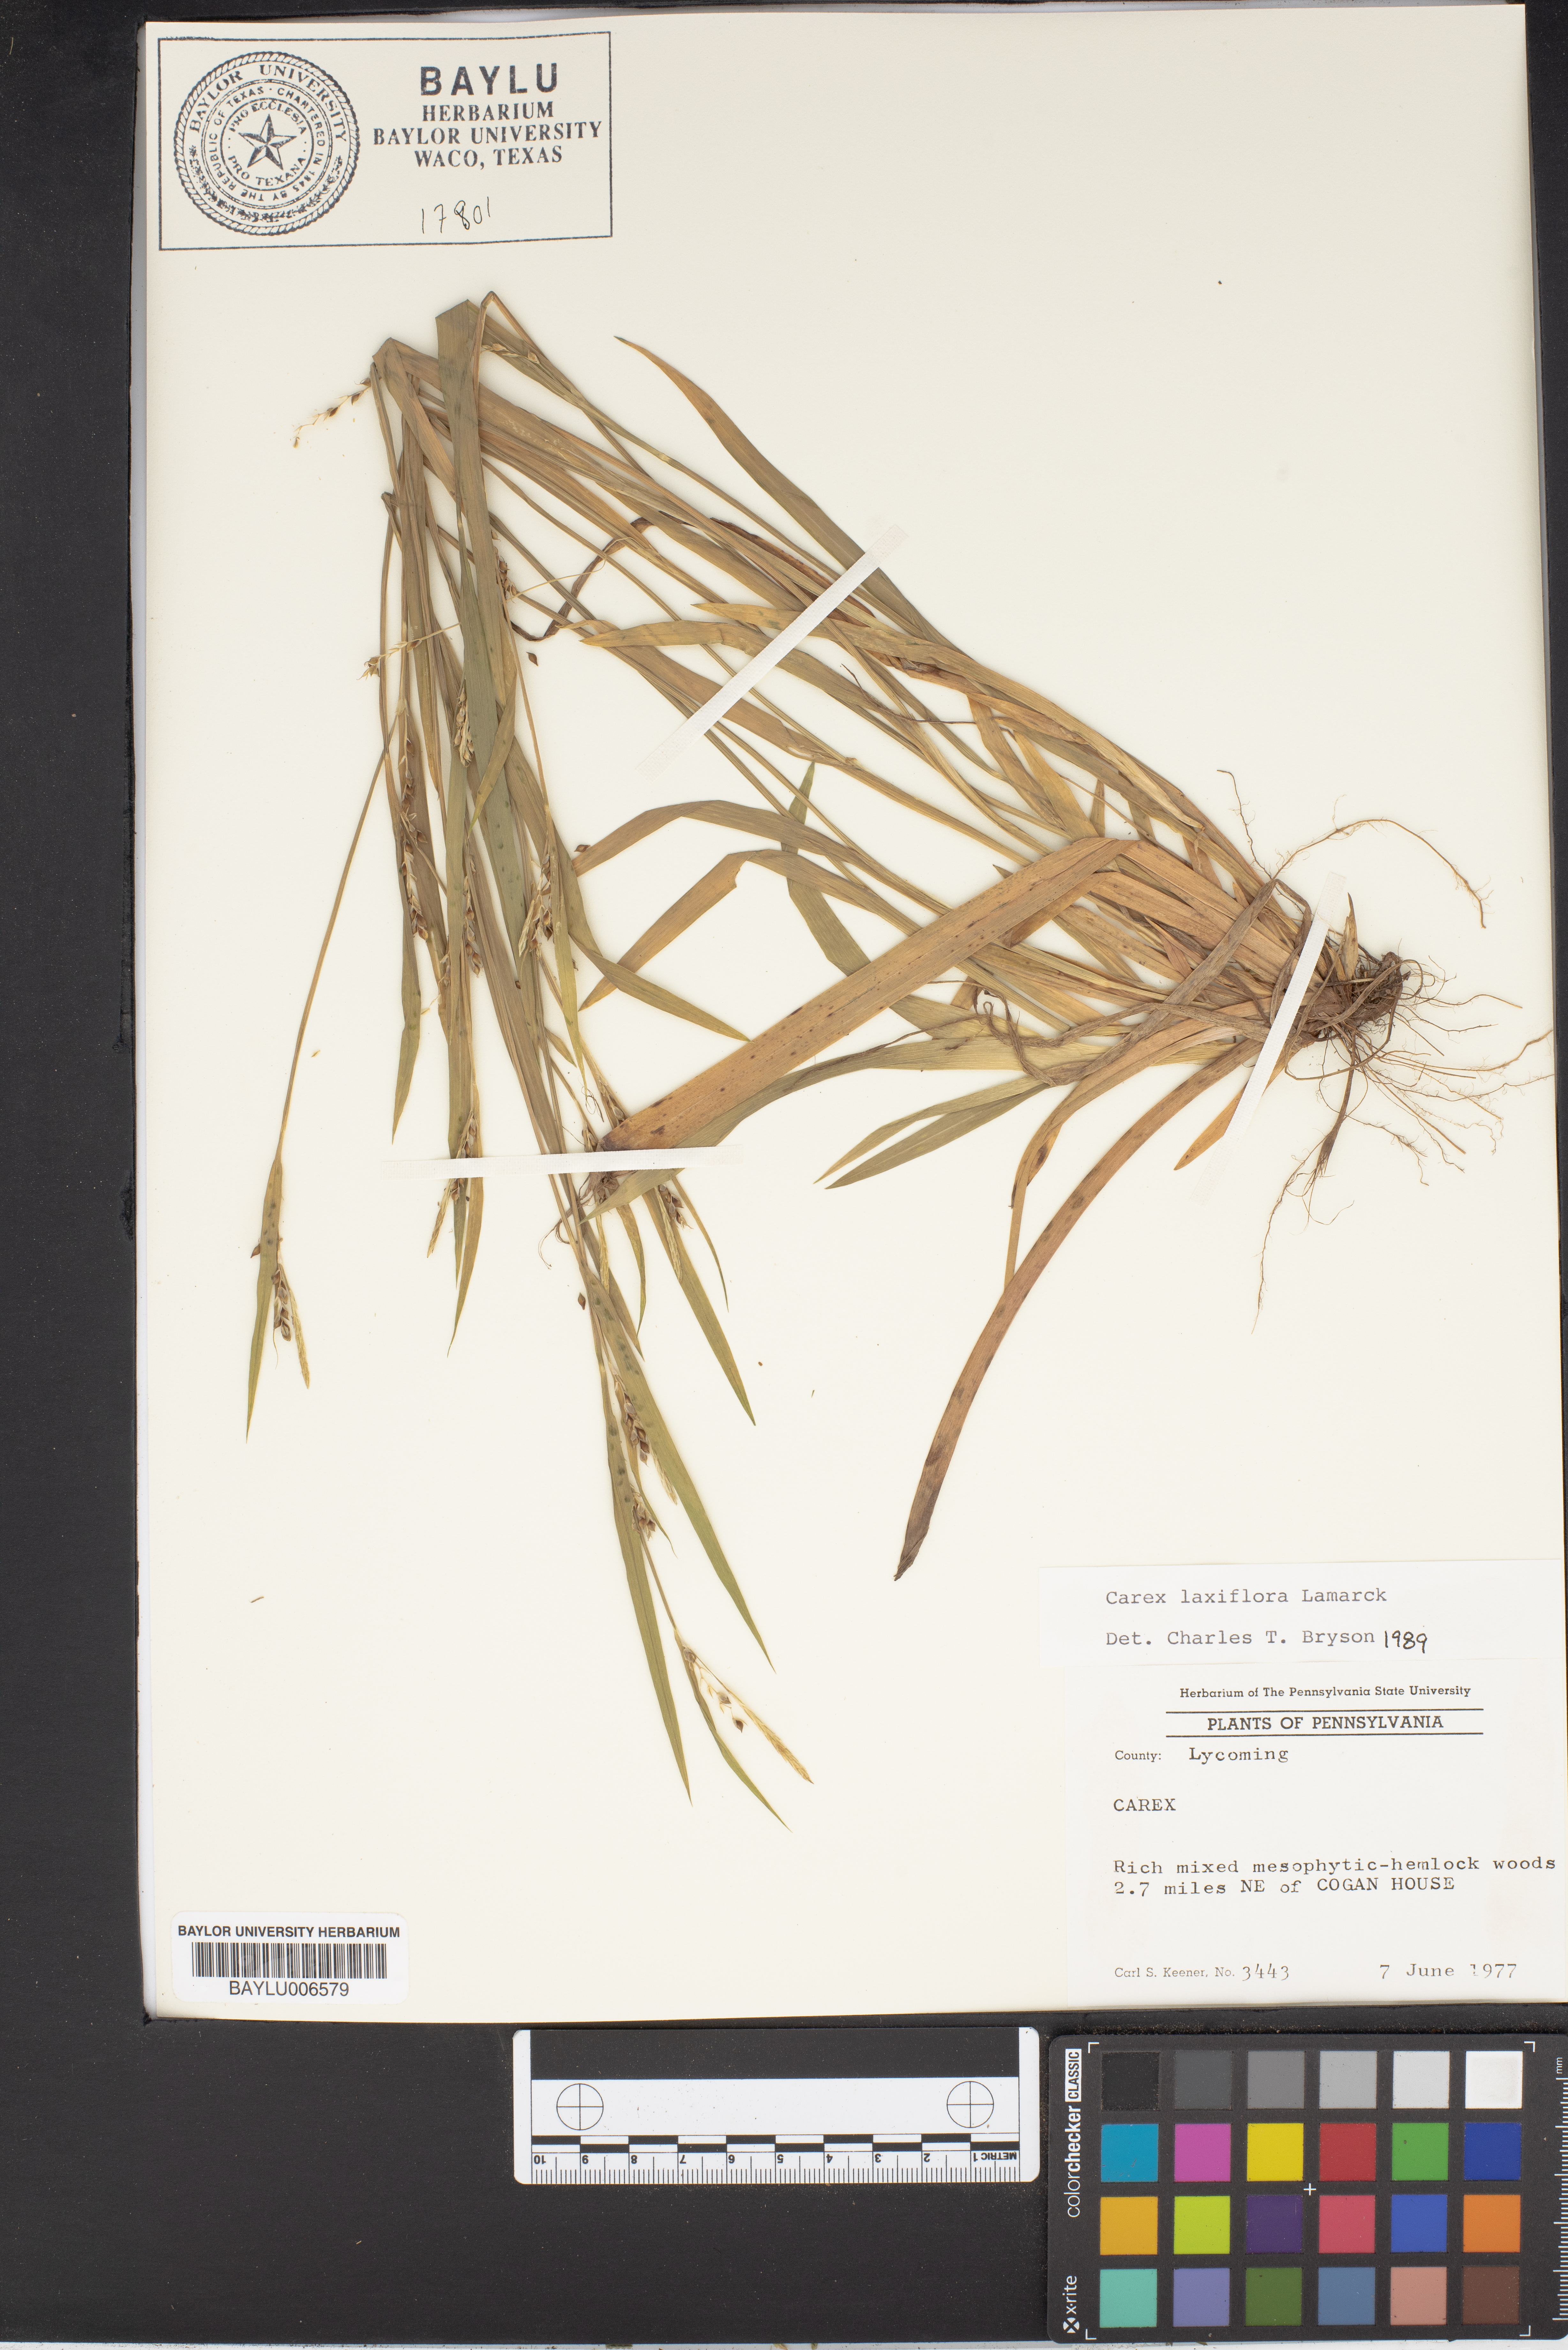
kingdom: Plantae
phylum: Tracheophyta
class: Liliopsida
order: Poales
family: Cyperaceae
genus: Carex
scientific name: Carex
